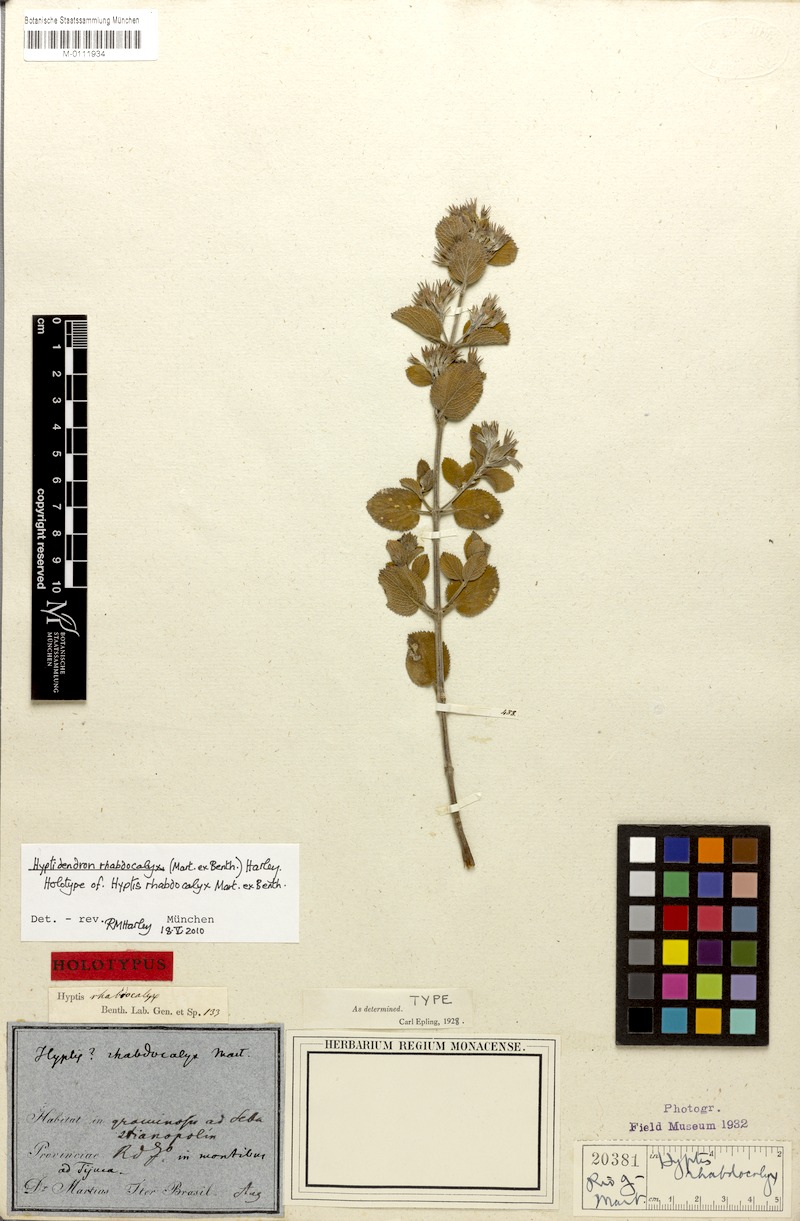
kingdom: Plantae
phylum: Tracheophyta
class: Magnoliopsida
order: Lamiales
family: Lamiaceae
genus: Hyptidendron
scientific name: Hyptidendron rhabdocalyx
